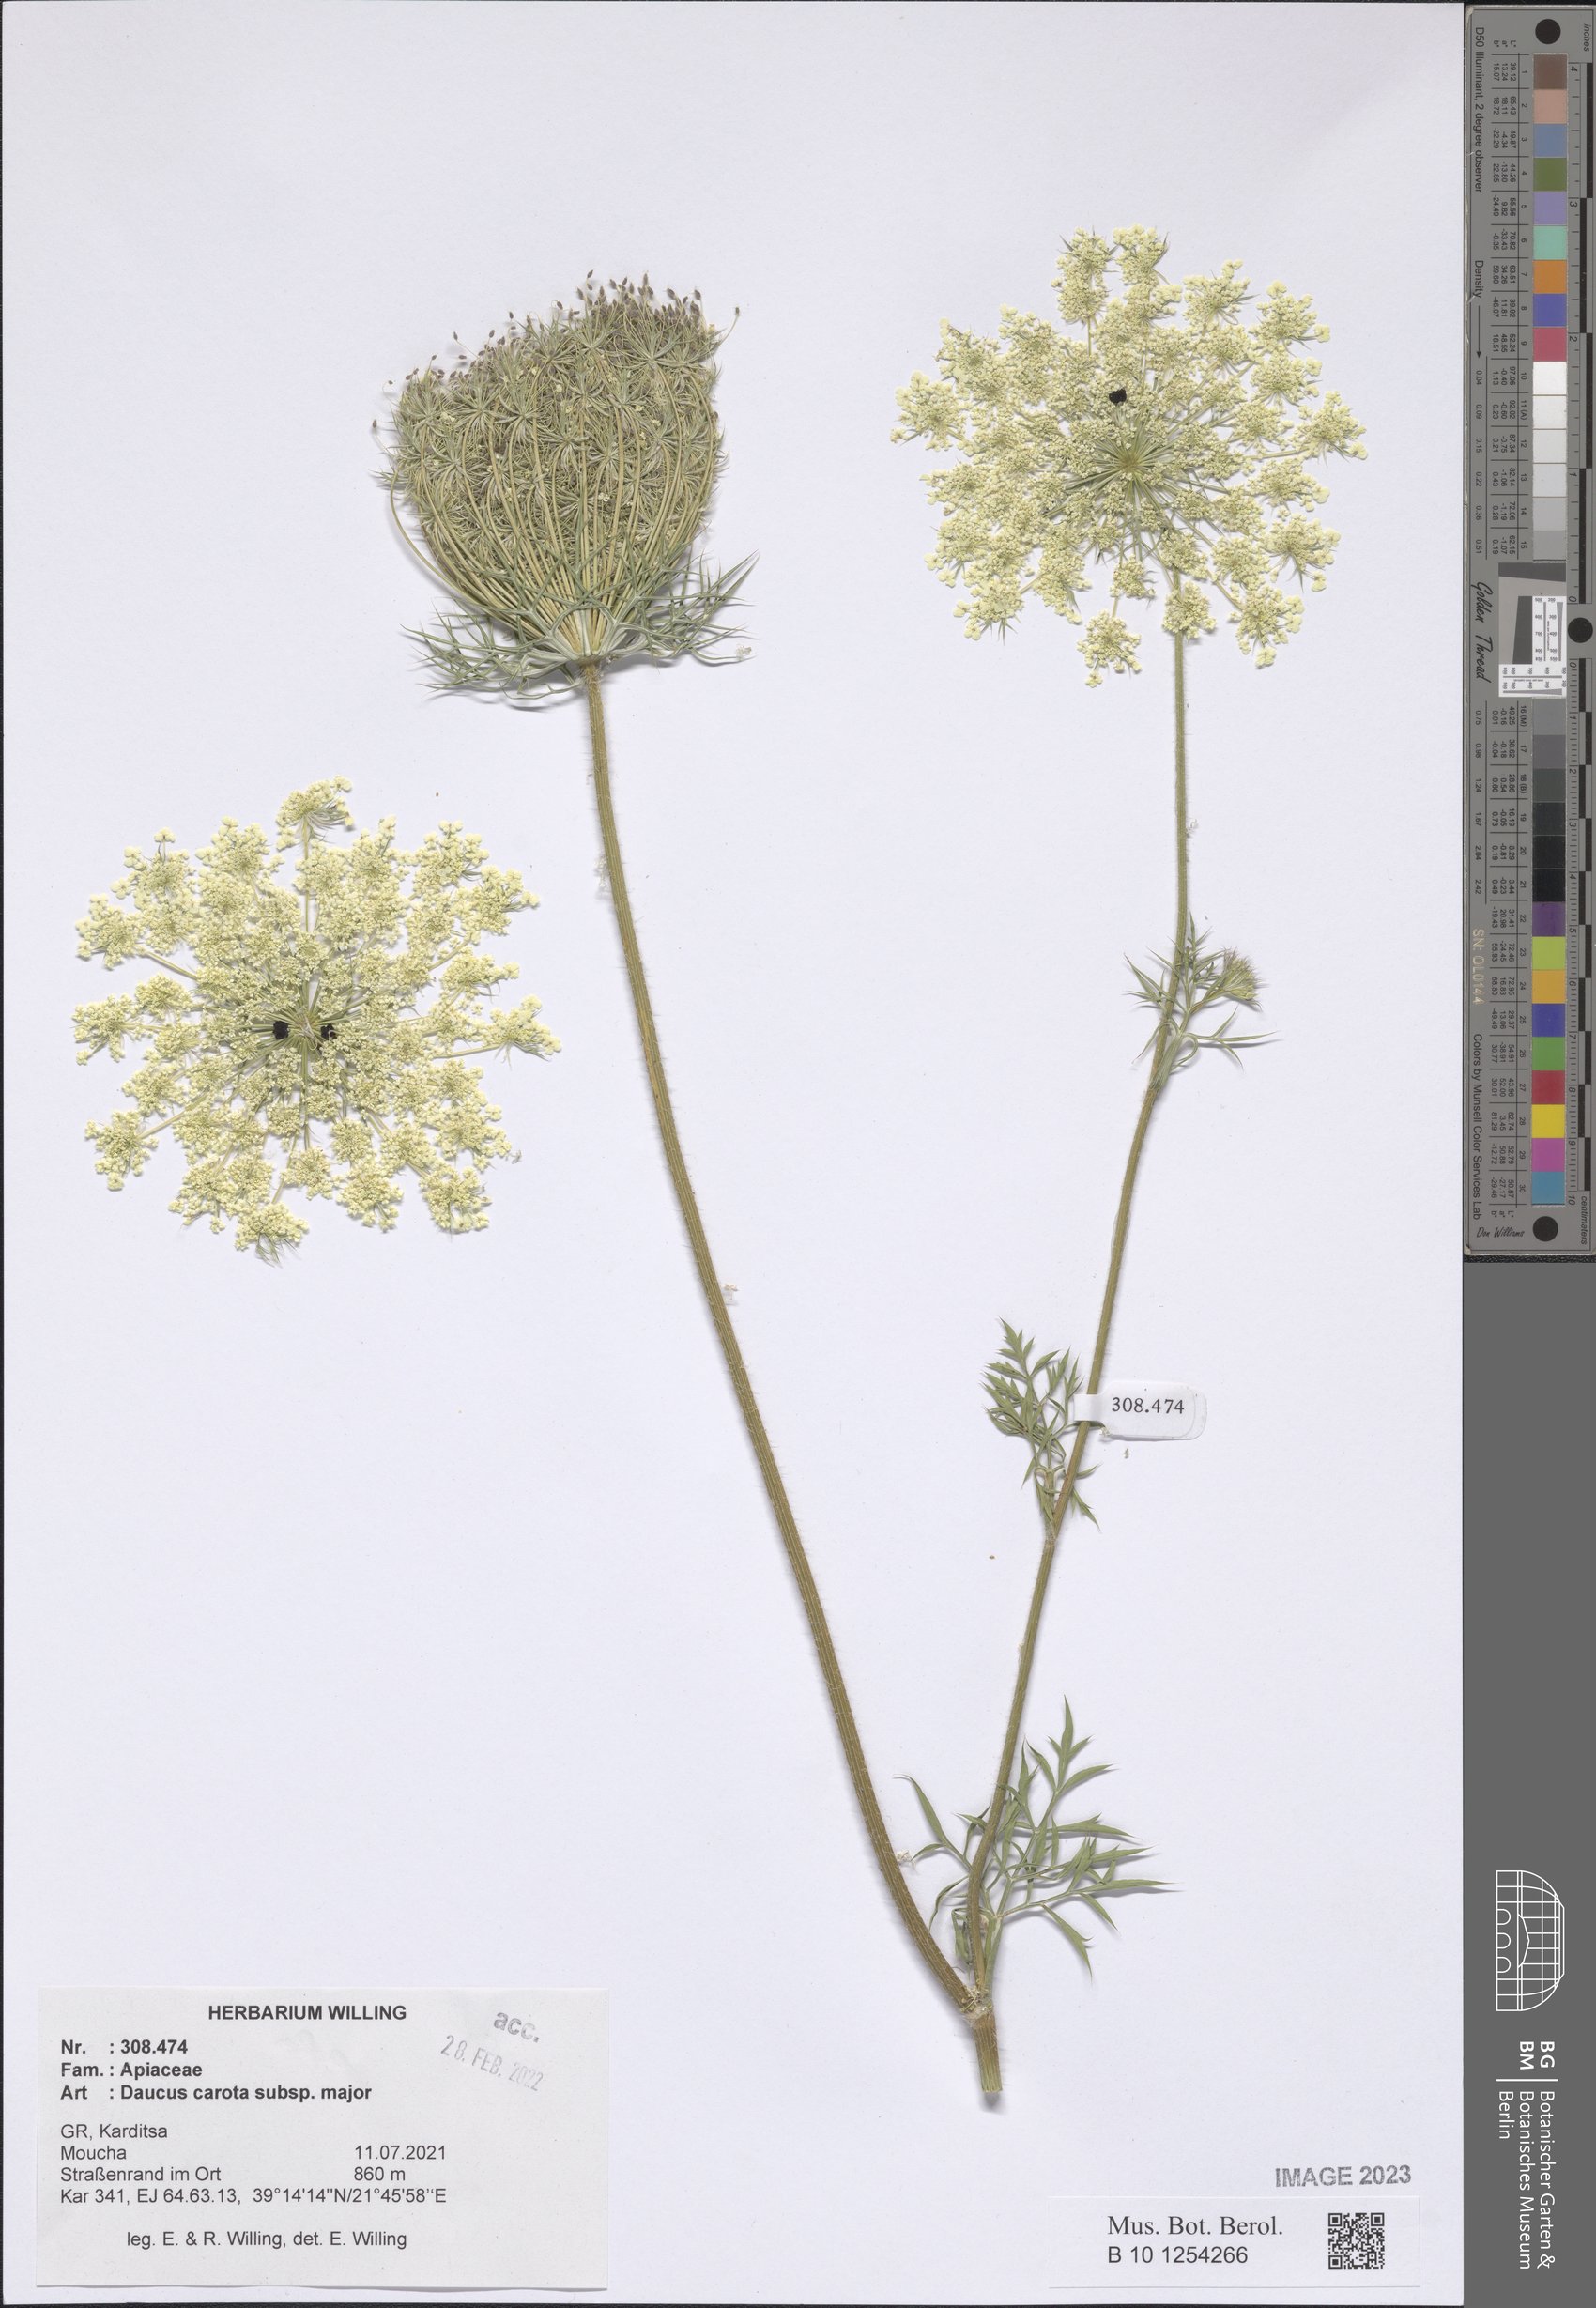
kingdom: Plantae
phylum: Tracheophyta
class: Magnoliopsida
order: Apiales
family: Apiaceae
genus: Daucus
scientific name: Daucus carota
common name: Wild carrot
